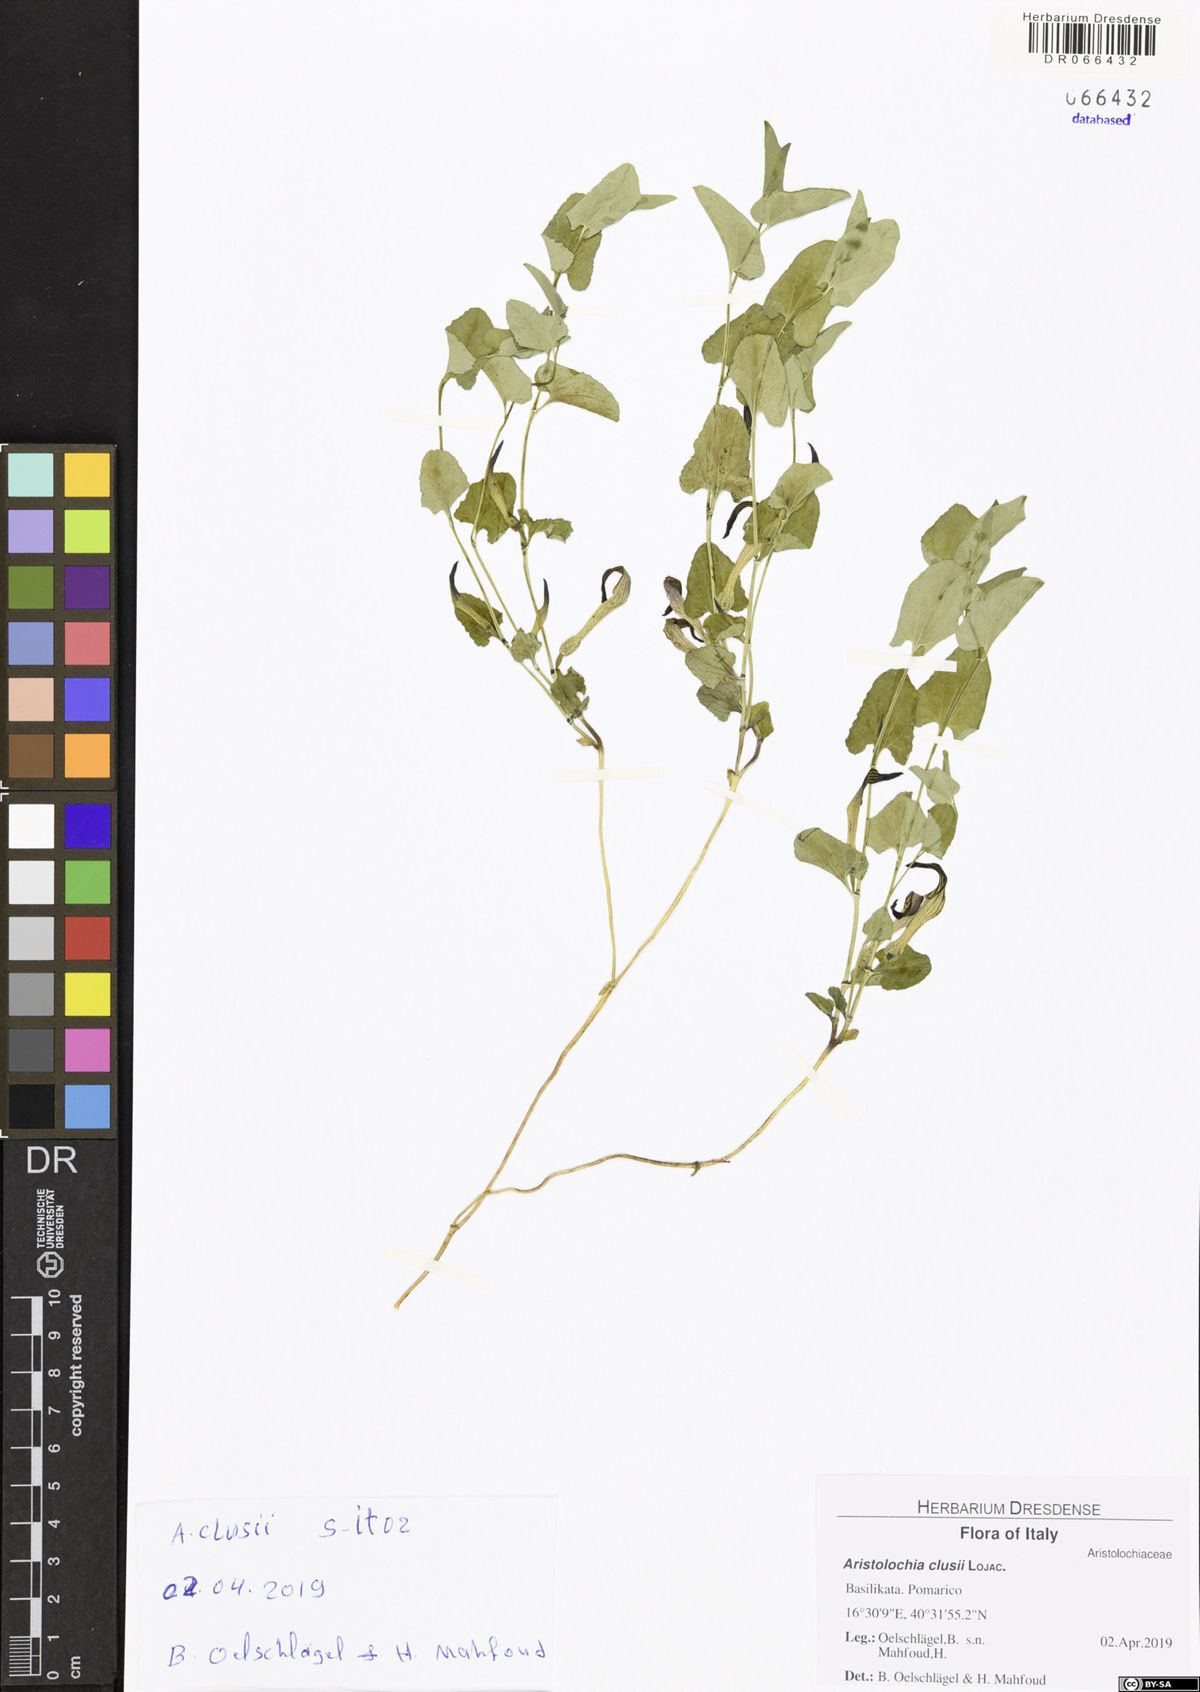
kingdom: Plantae
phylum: Tracheophyta
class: Magnoliopsida
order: Piperales
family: Aristolochiaceae
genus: Aristolochia
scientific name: Aristolochia clusii
